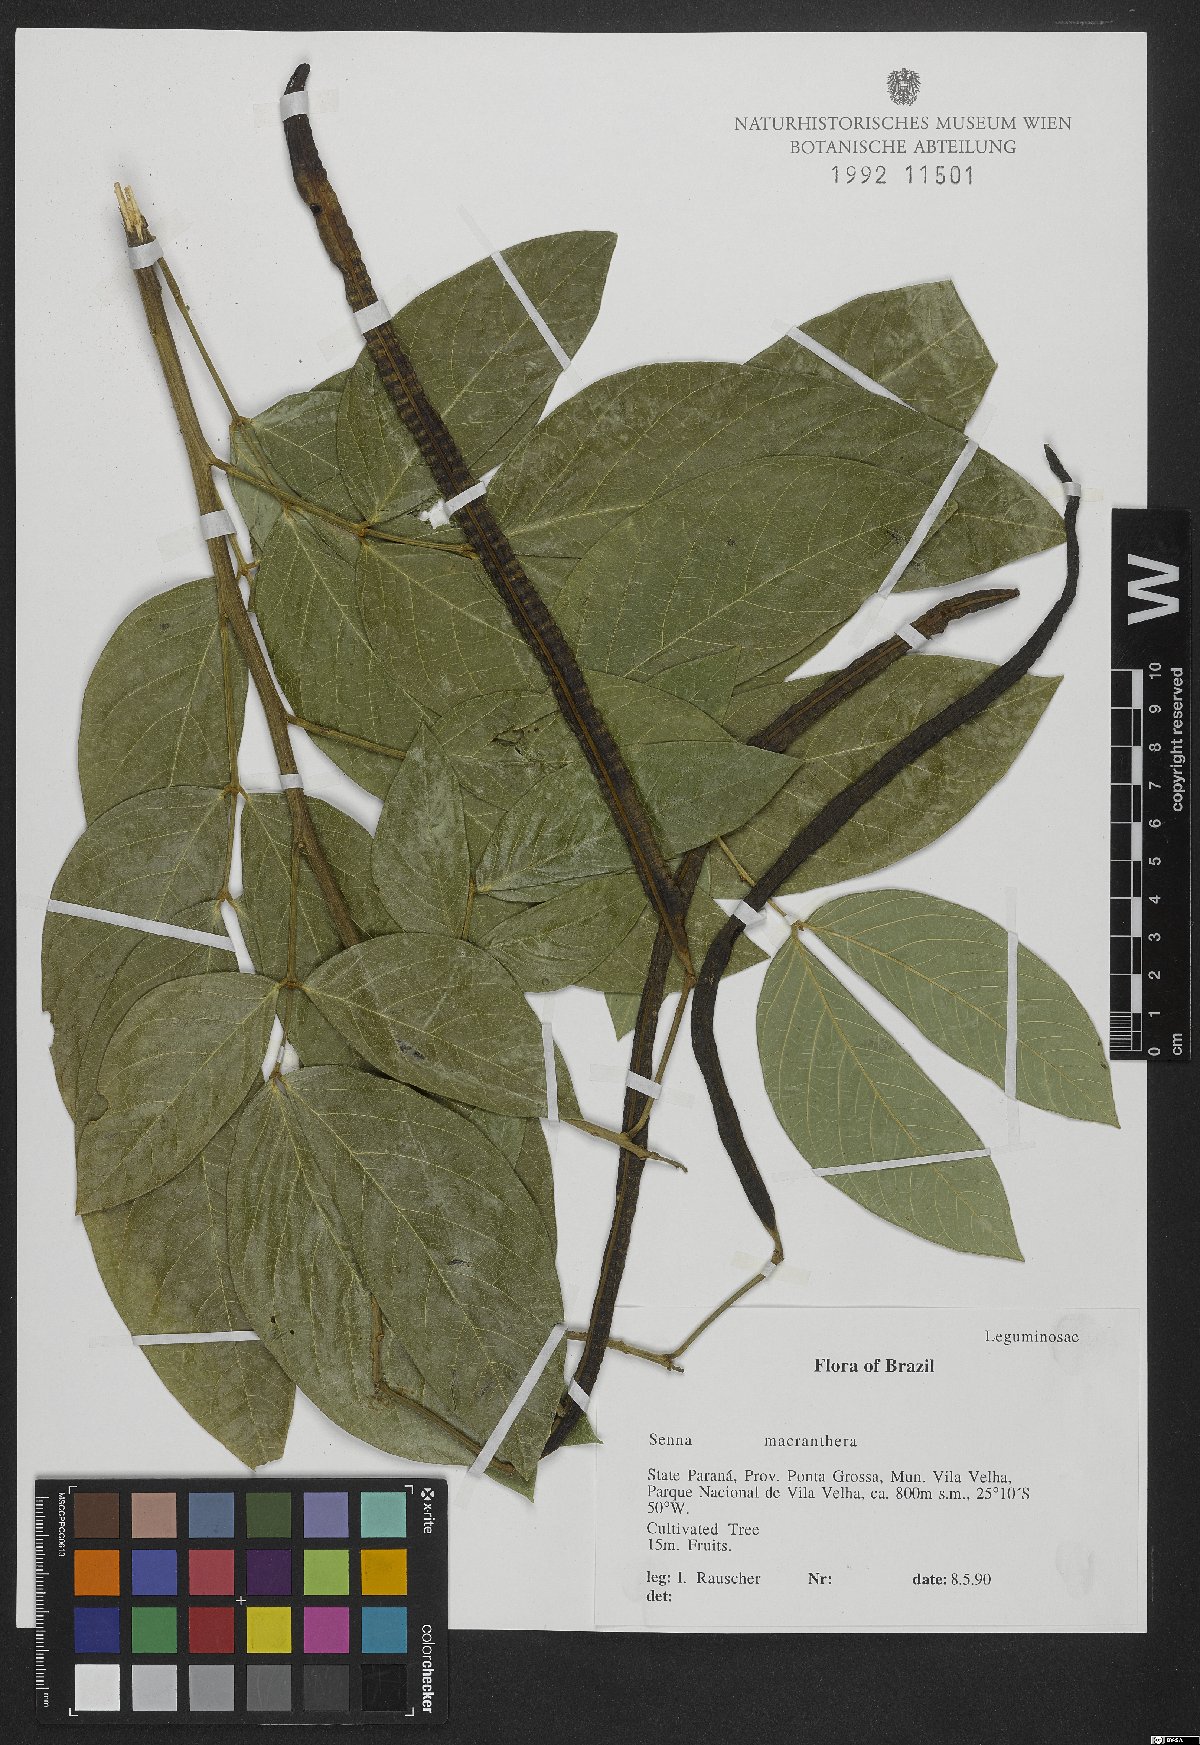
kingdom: Plantae
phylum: Tracheophyta
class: Magnoliopsida
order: Fabales
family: Fabaceae
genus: Senna
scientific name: Senna macranthera
